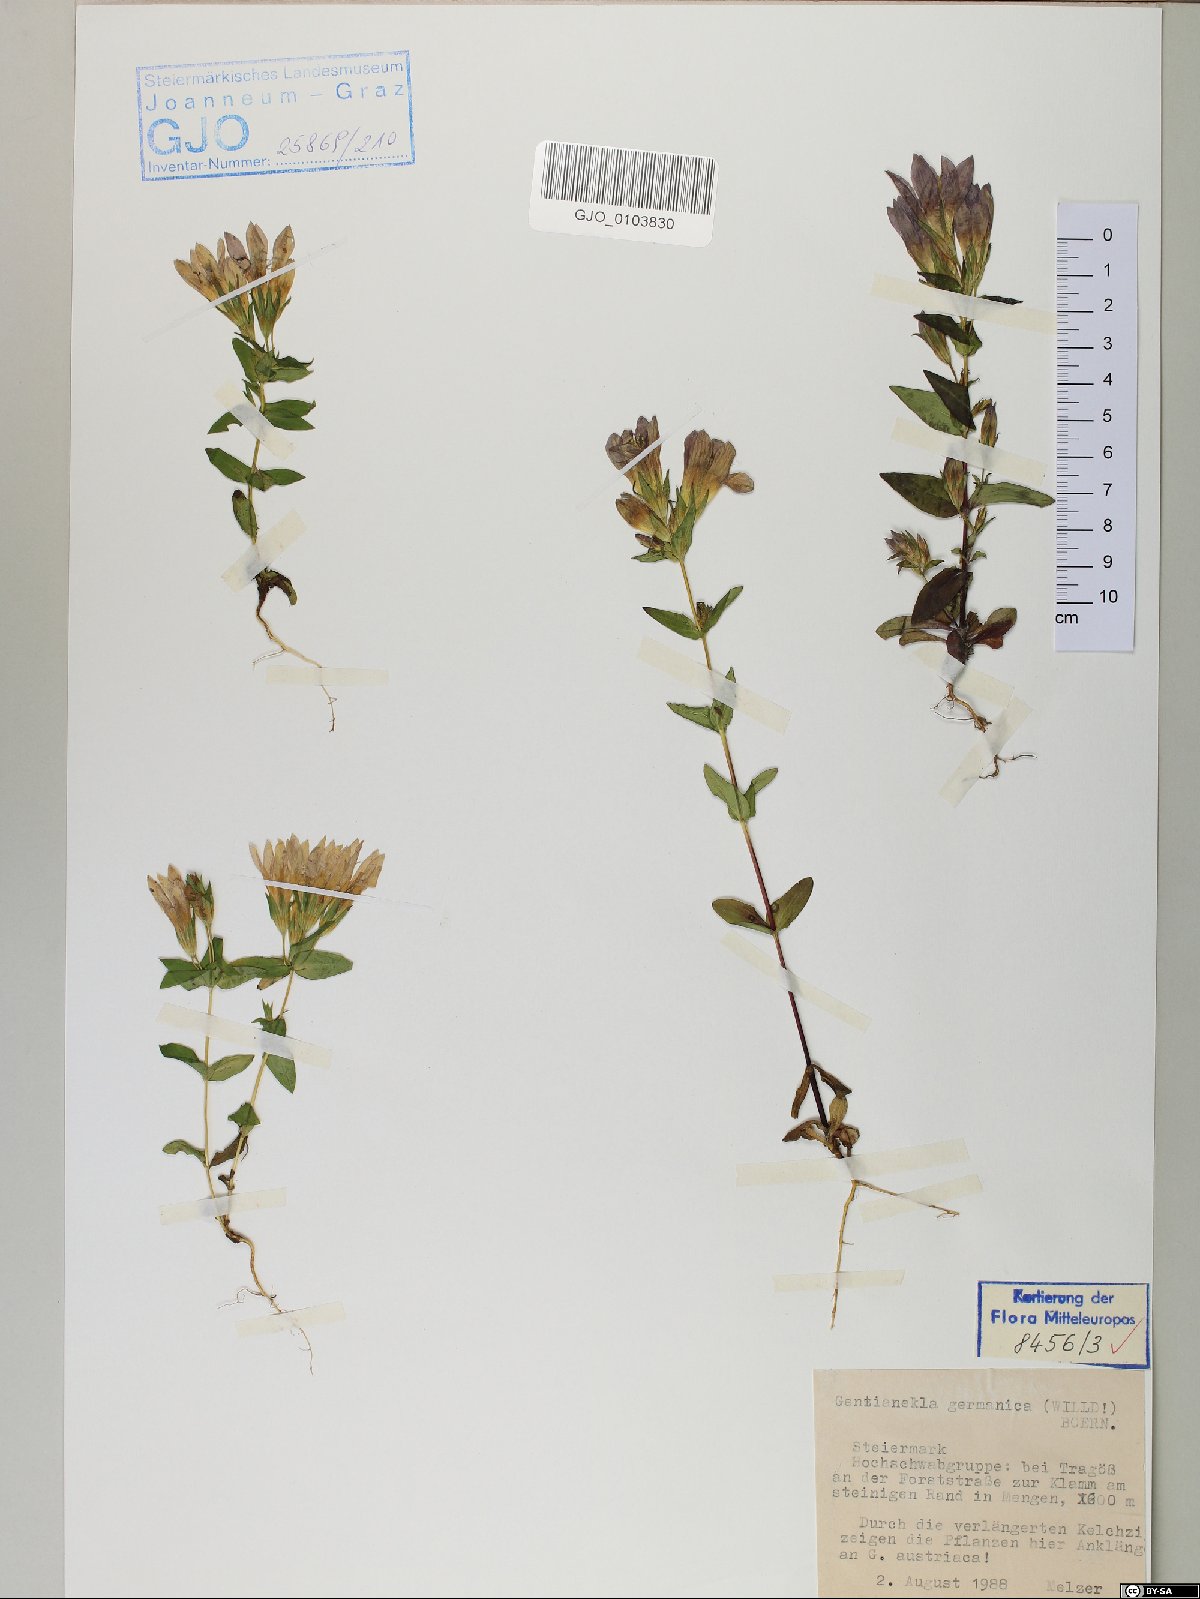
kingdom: Plantae
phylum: Tracheophyta
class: Magnoliopsida
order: Gentianales
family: Gentianaceae
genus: Gentianella
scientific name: Gentianella germanica
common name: Chiltern-gentian
